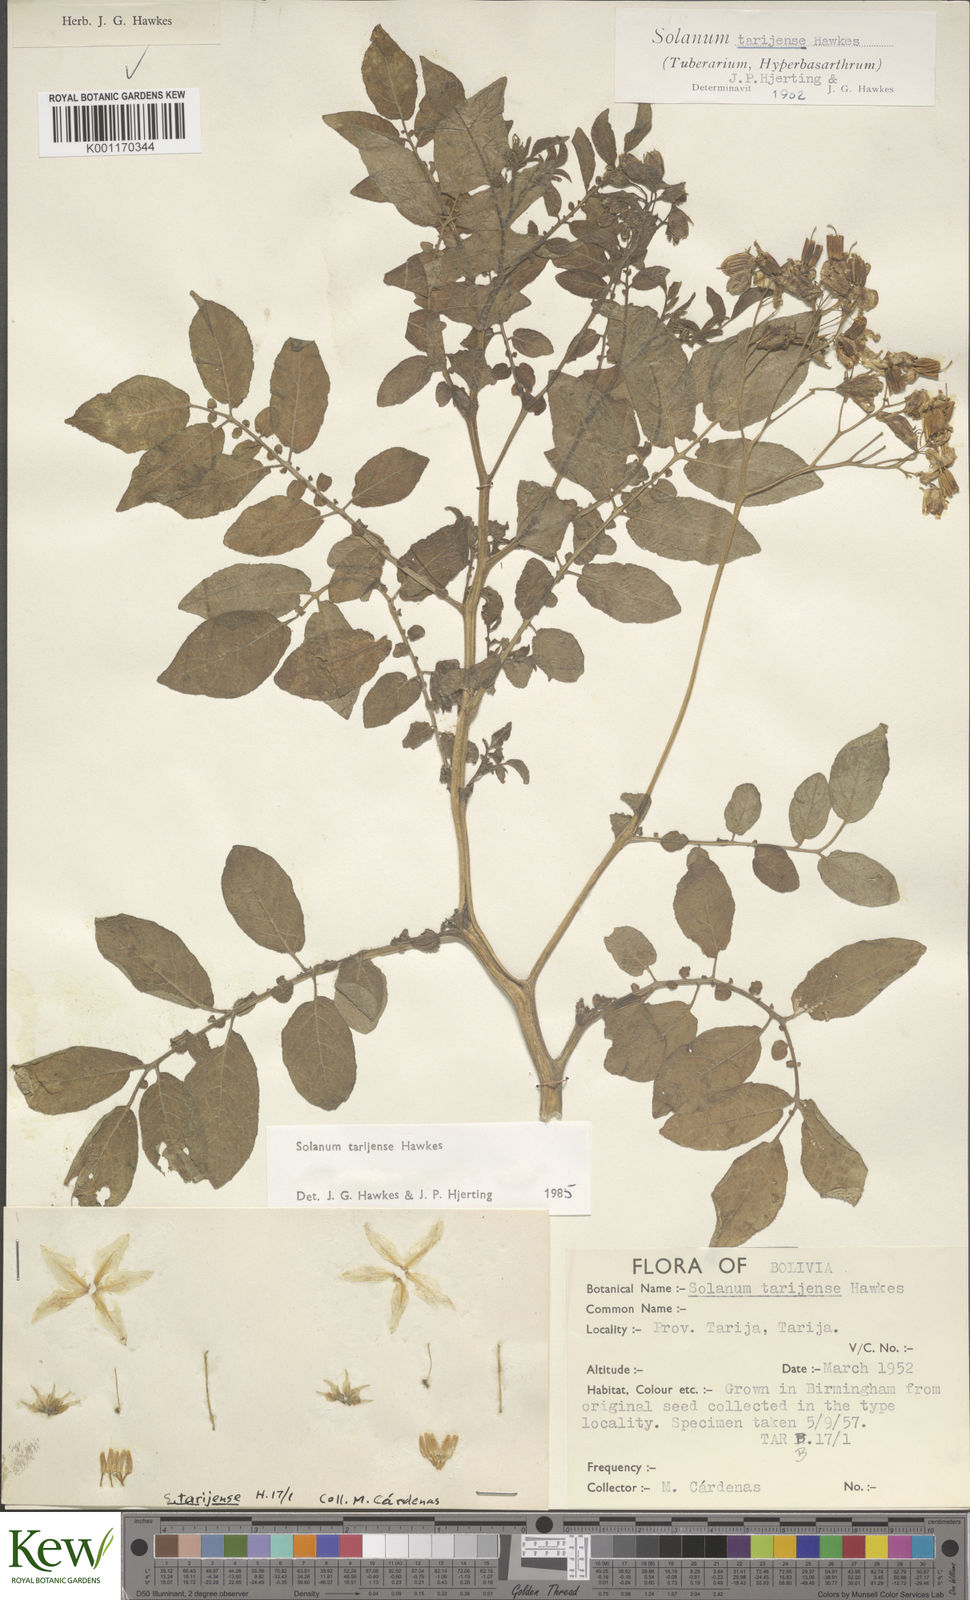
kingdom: Plantae
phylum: Tracheophyta
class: Magnoliopsida
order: Solanales
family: Solanaceae
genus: Solanum
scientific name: Solanum tarijense
